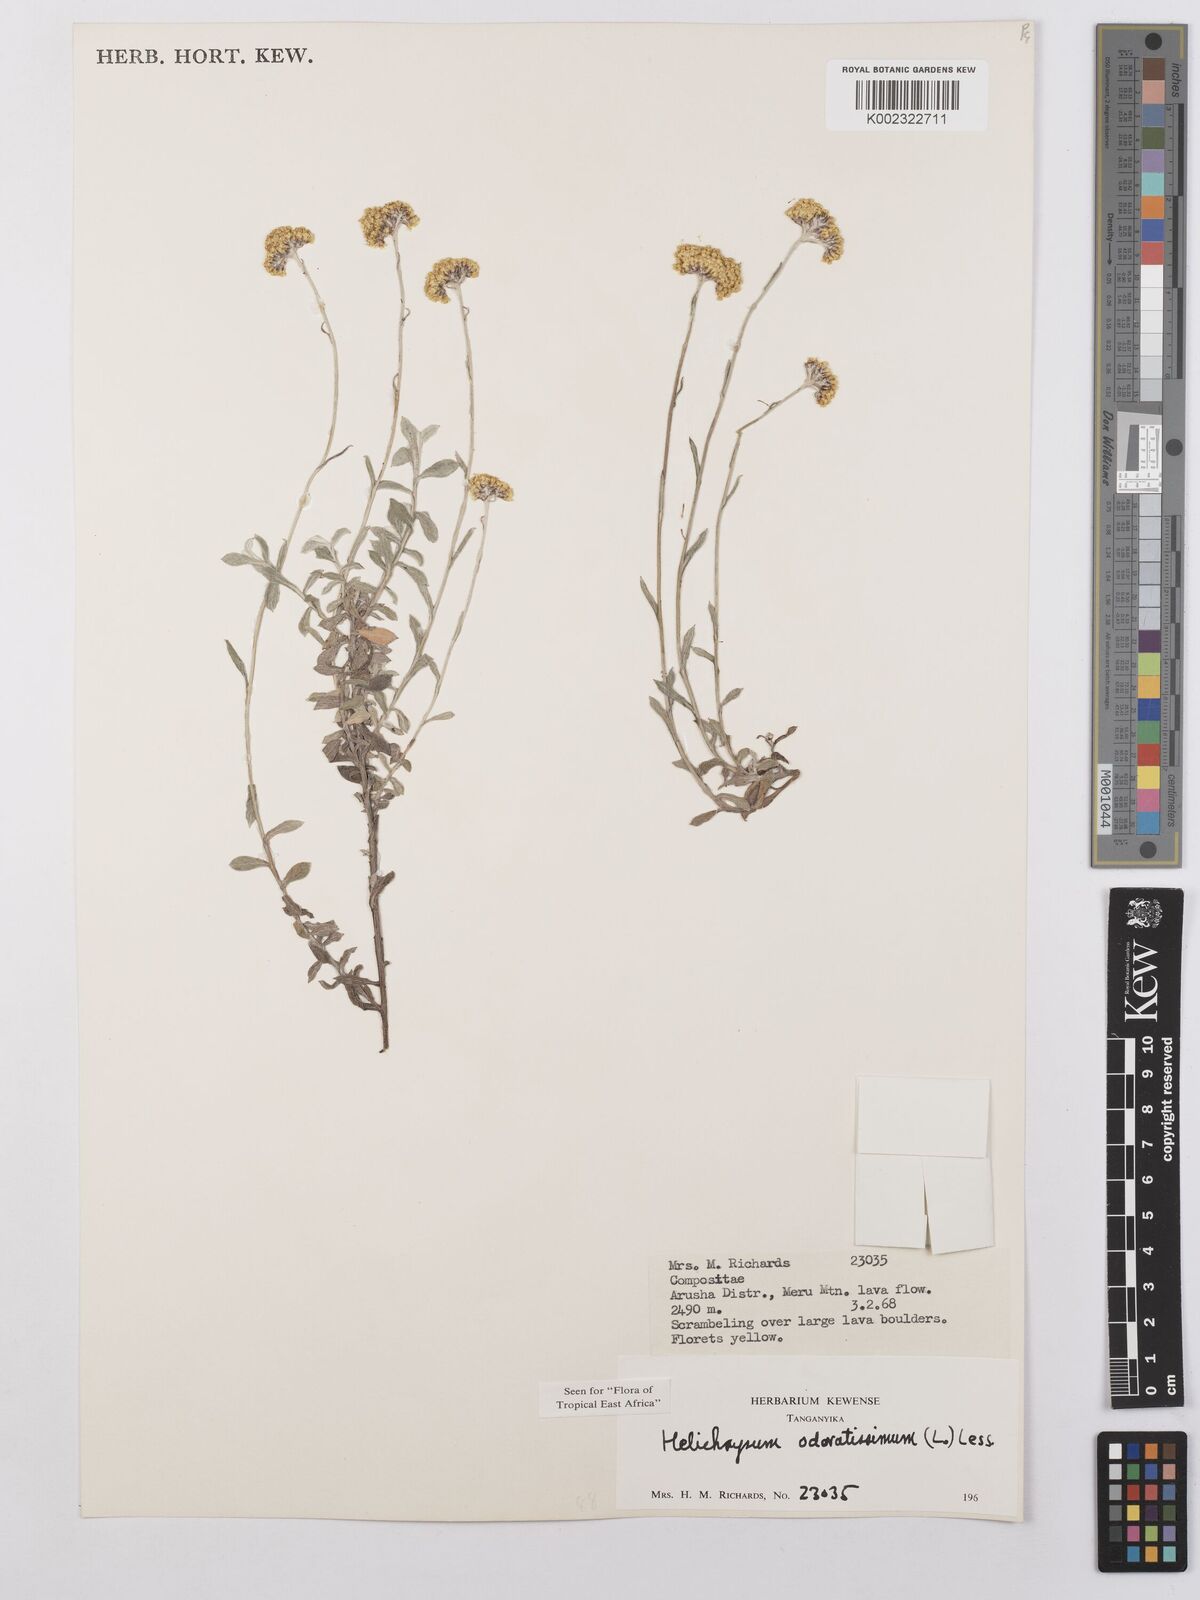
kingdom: Plantae
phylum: Tracheophyta
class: Magnoliopsida
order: Asterales
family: Asteraceae
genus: Helichrysum
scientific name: Helichrysum odoratissimum
